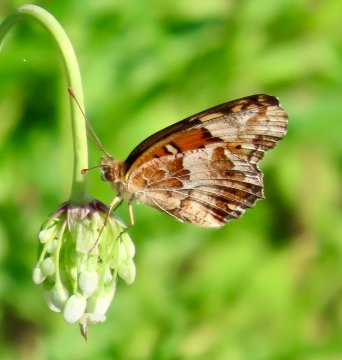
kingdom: Animalia
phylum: Arthropoda
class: Insecta
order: Lepidoptera
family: Nymphalidae
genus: Euptoieta
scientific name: Euptoieta claudia
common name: Variegated Fritillary
